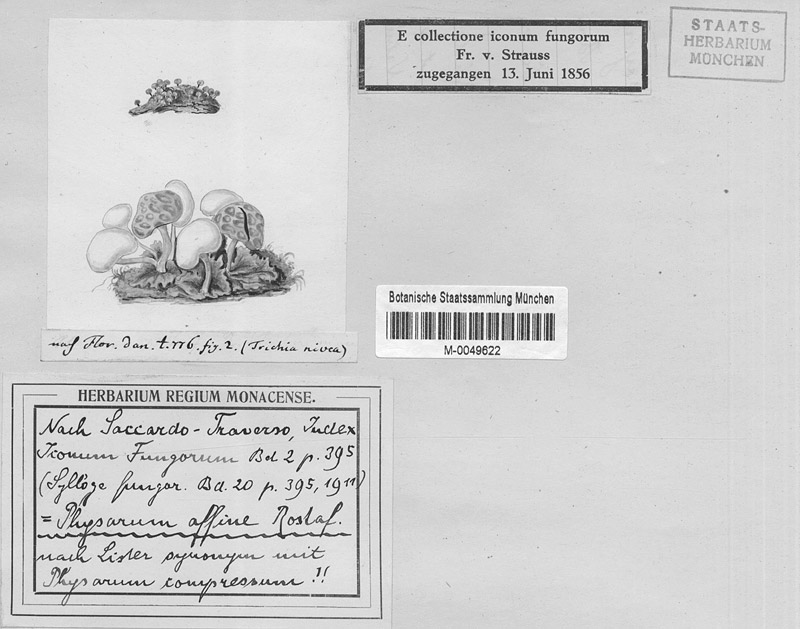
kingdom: Protozoa
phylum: Mycetozoa
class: Myxomycetes
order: Physarales
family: Physaraceae
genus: Physarum
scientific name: Physarum compressum
